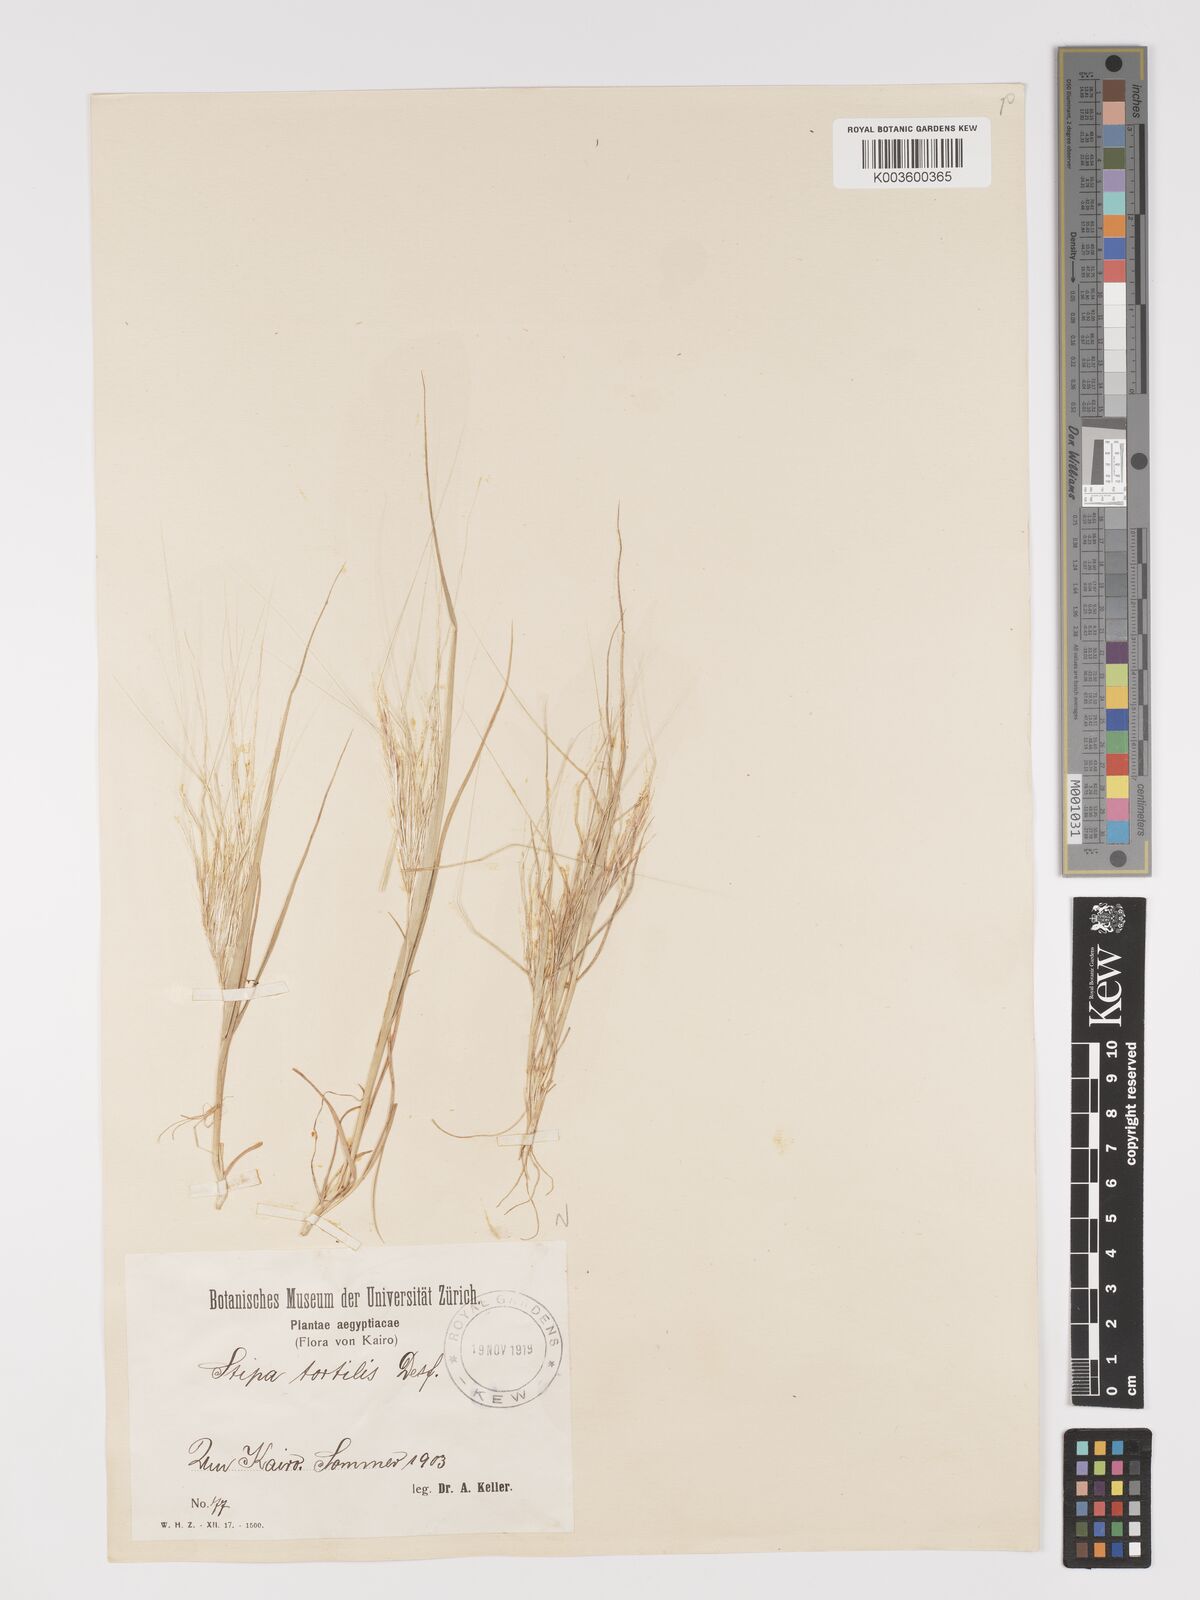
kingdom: Plantae
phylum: Tracheophyta
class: Liliopsida
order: Poales
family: Poaceae
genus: Stipellula
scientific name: Stipellula capensis
